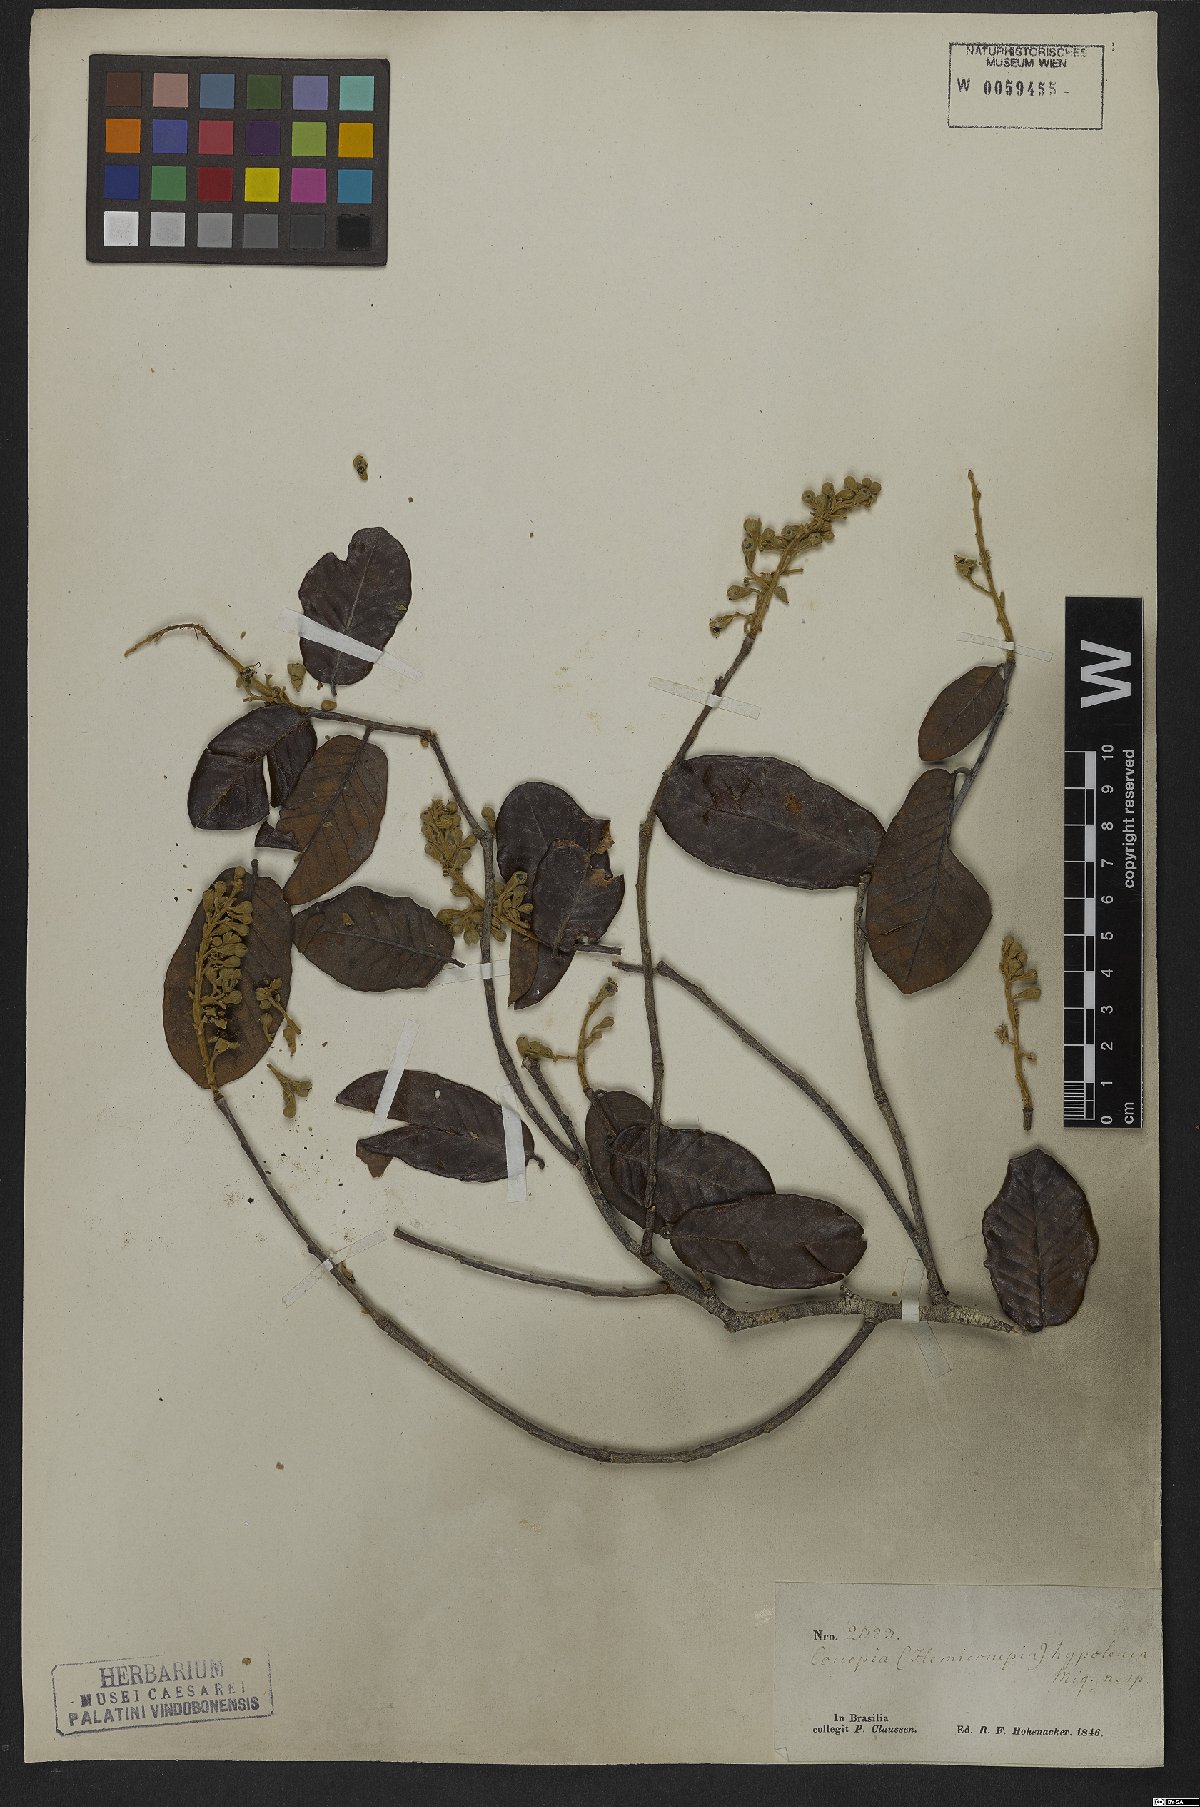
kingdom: Plantae
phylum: Tracheophyta
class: Magnoliopsida
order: Malpighiales
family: Chrysobalanaceae
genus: Couepia
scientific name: Couepia ovalifolia
